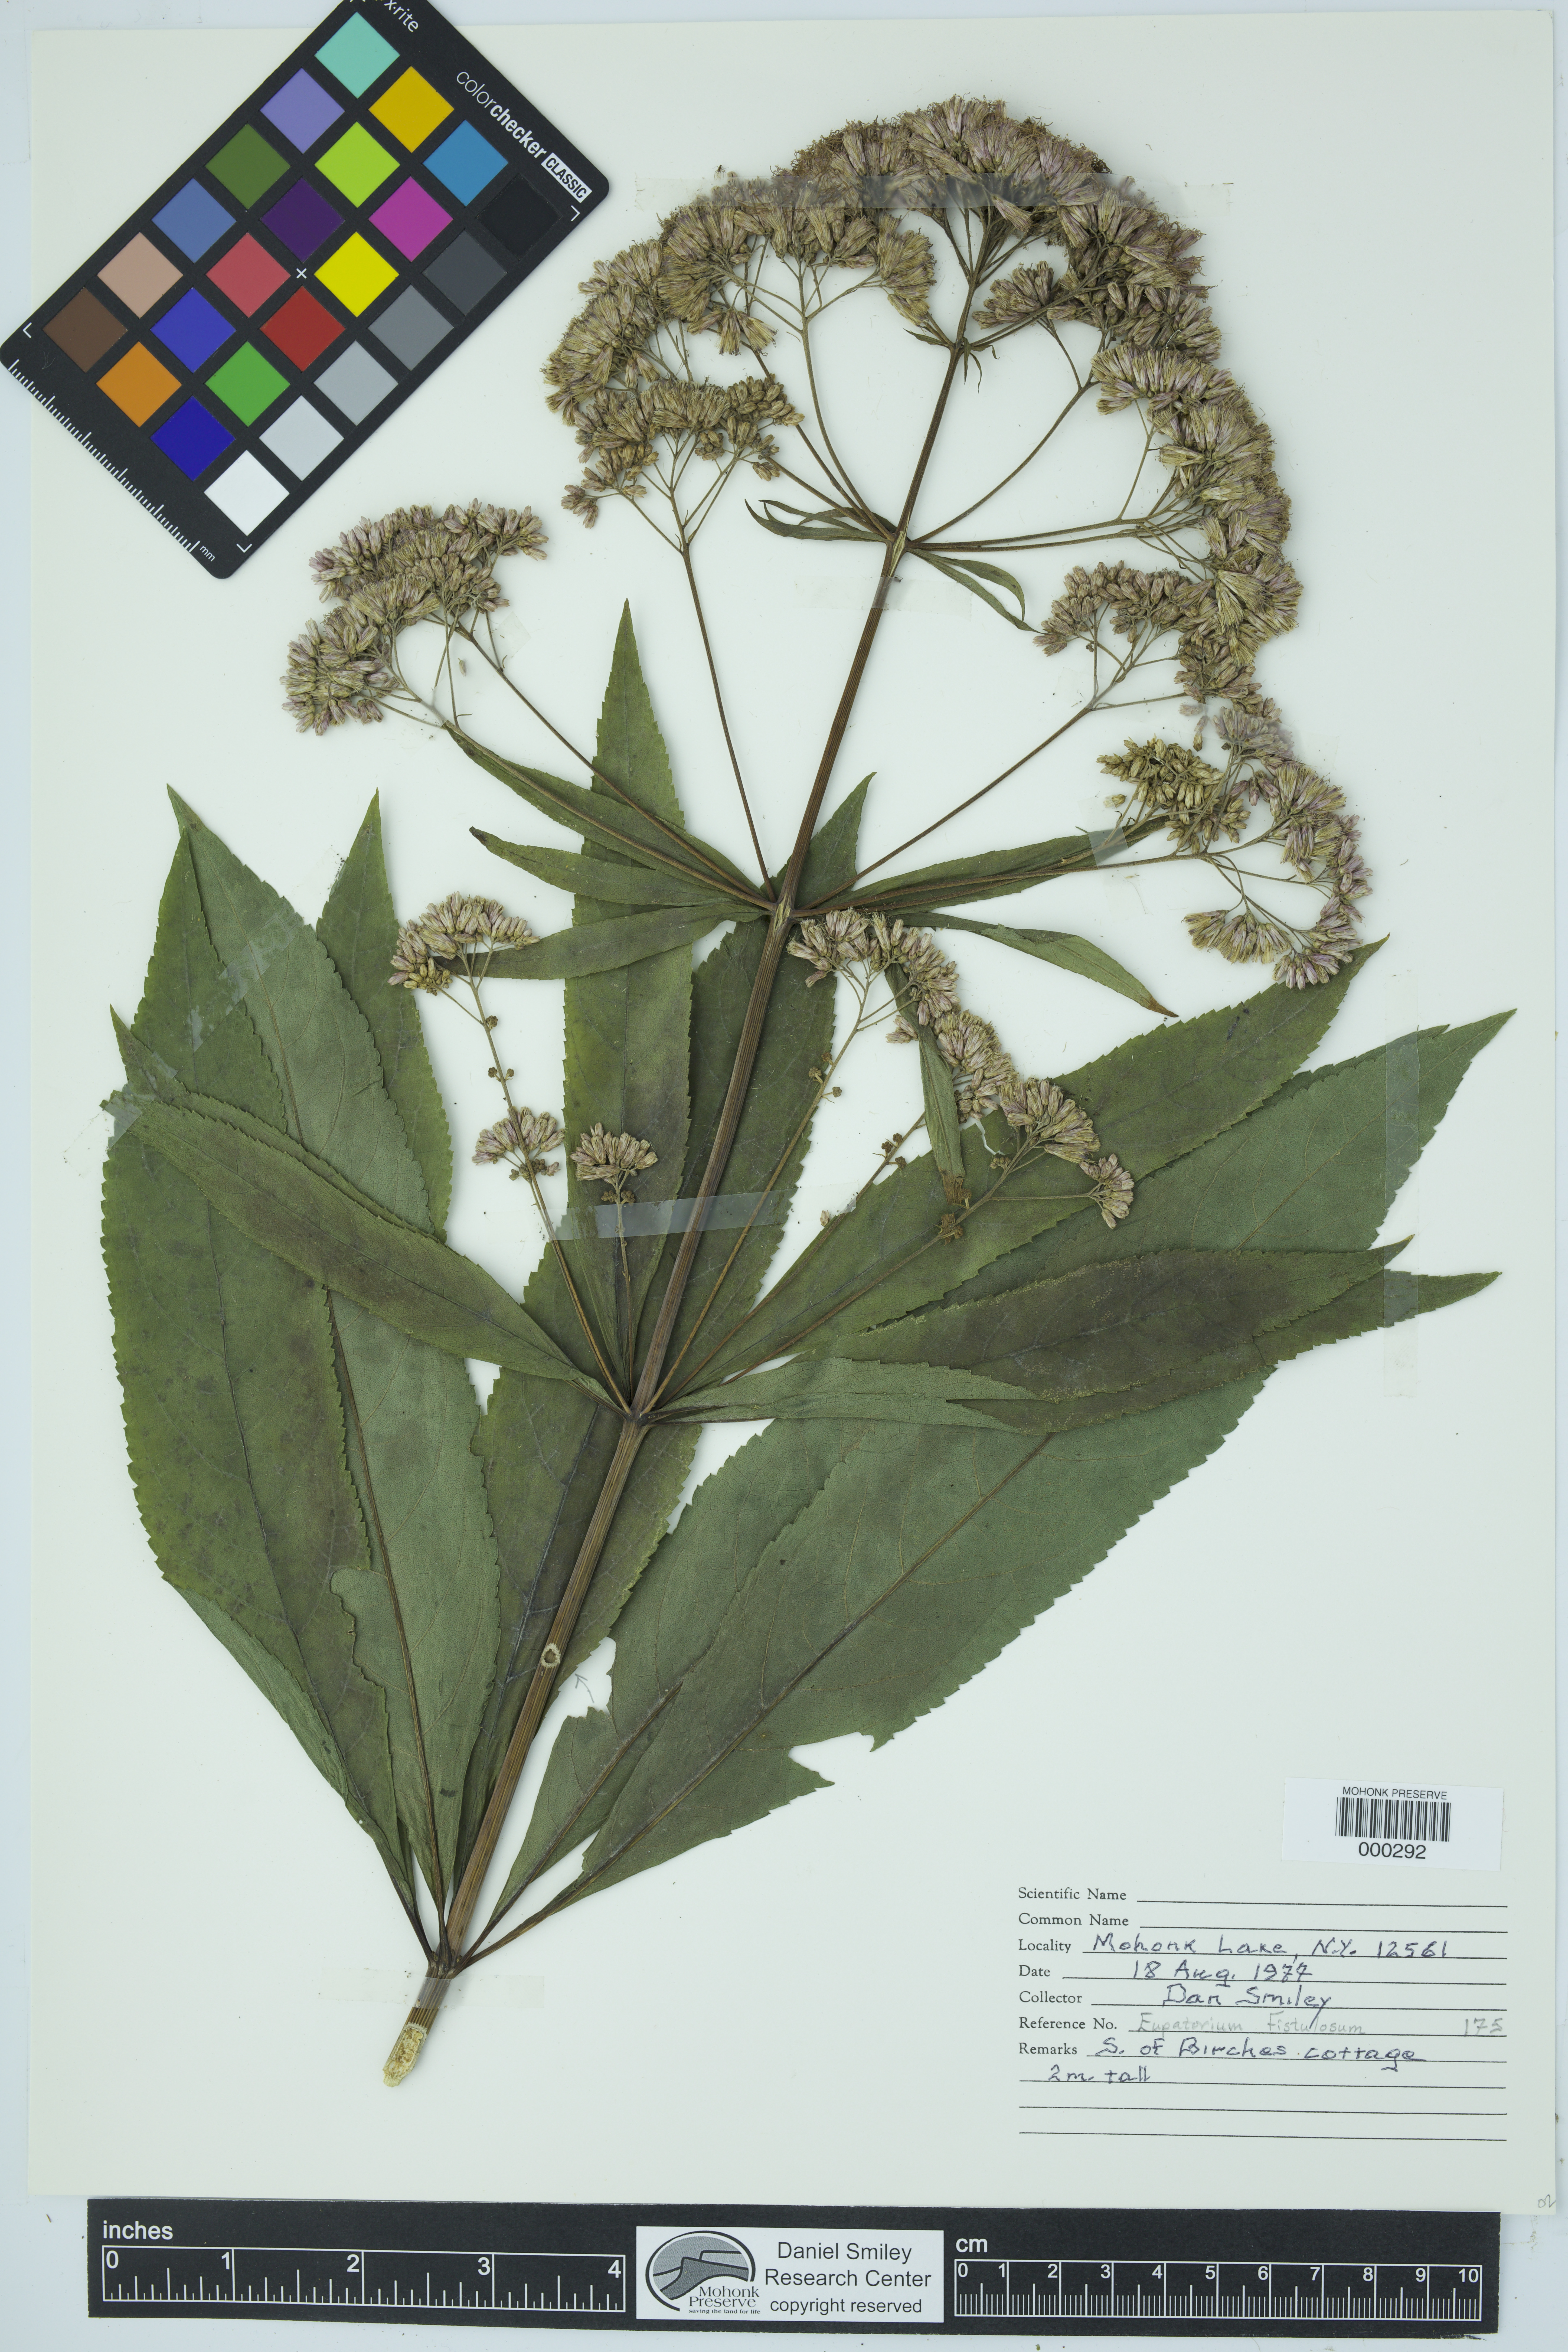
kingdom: Plantae
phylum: Tracheophyta
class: Magnoliopsida
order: Asterales
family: Asteraceae
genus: Eutrochium
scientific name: Eutrochium fistulosum
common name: Trumpetweed
